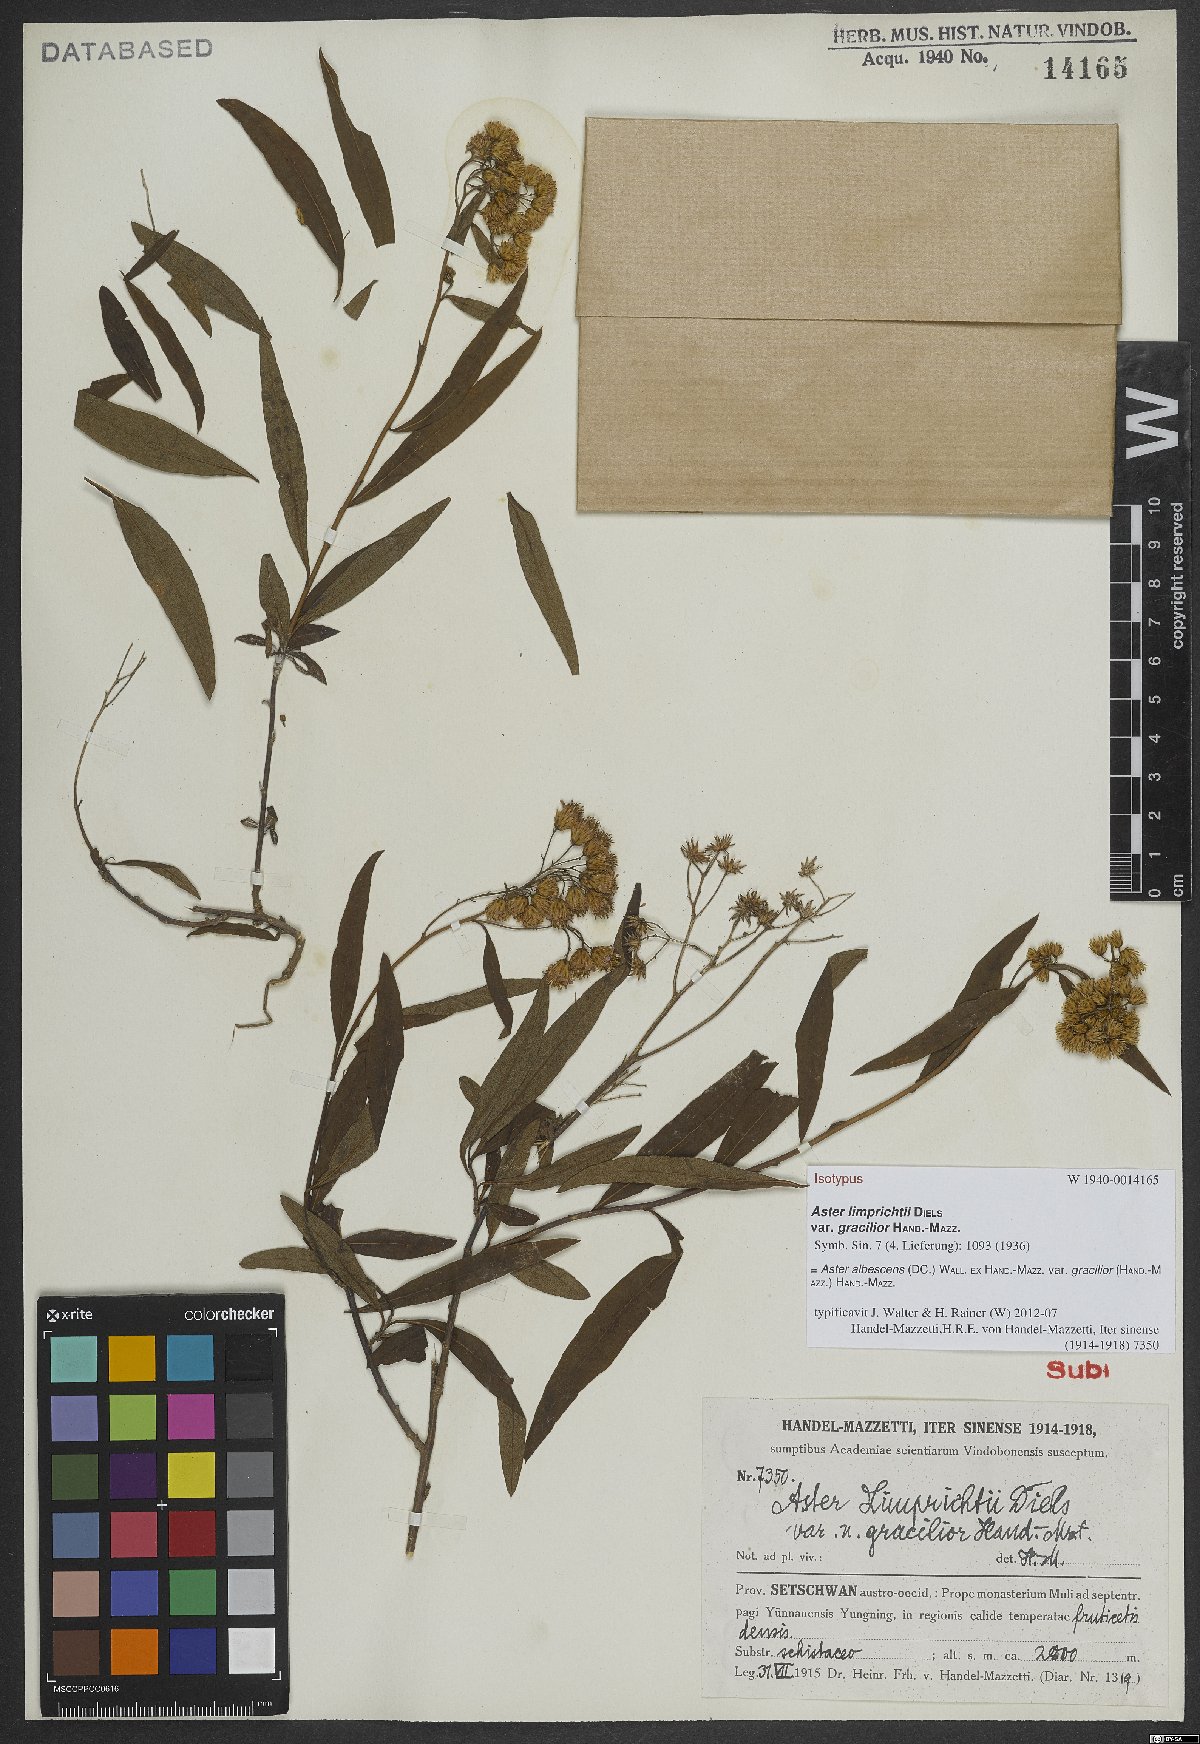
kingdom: Plantae
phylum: Tracheophyta
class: Magnoliopsida
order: Asterales
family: Asteraceae
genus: Sinosidus
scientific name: Sinosidus albescens
